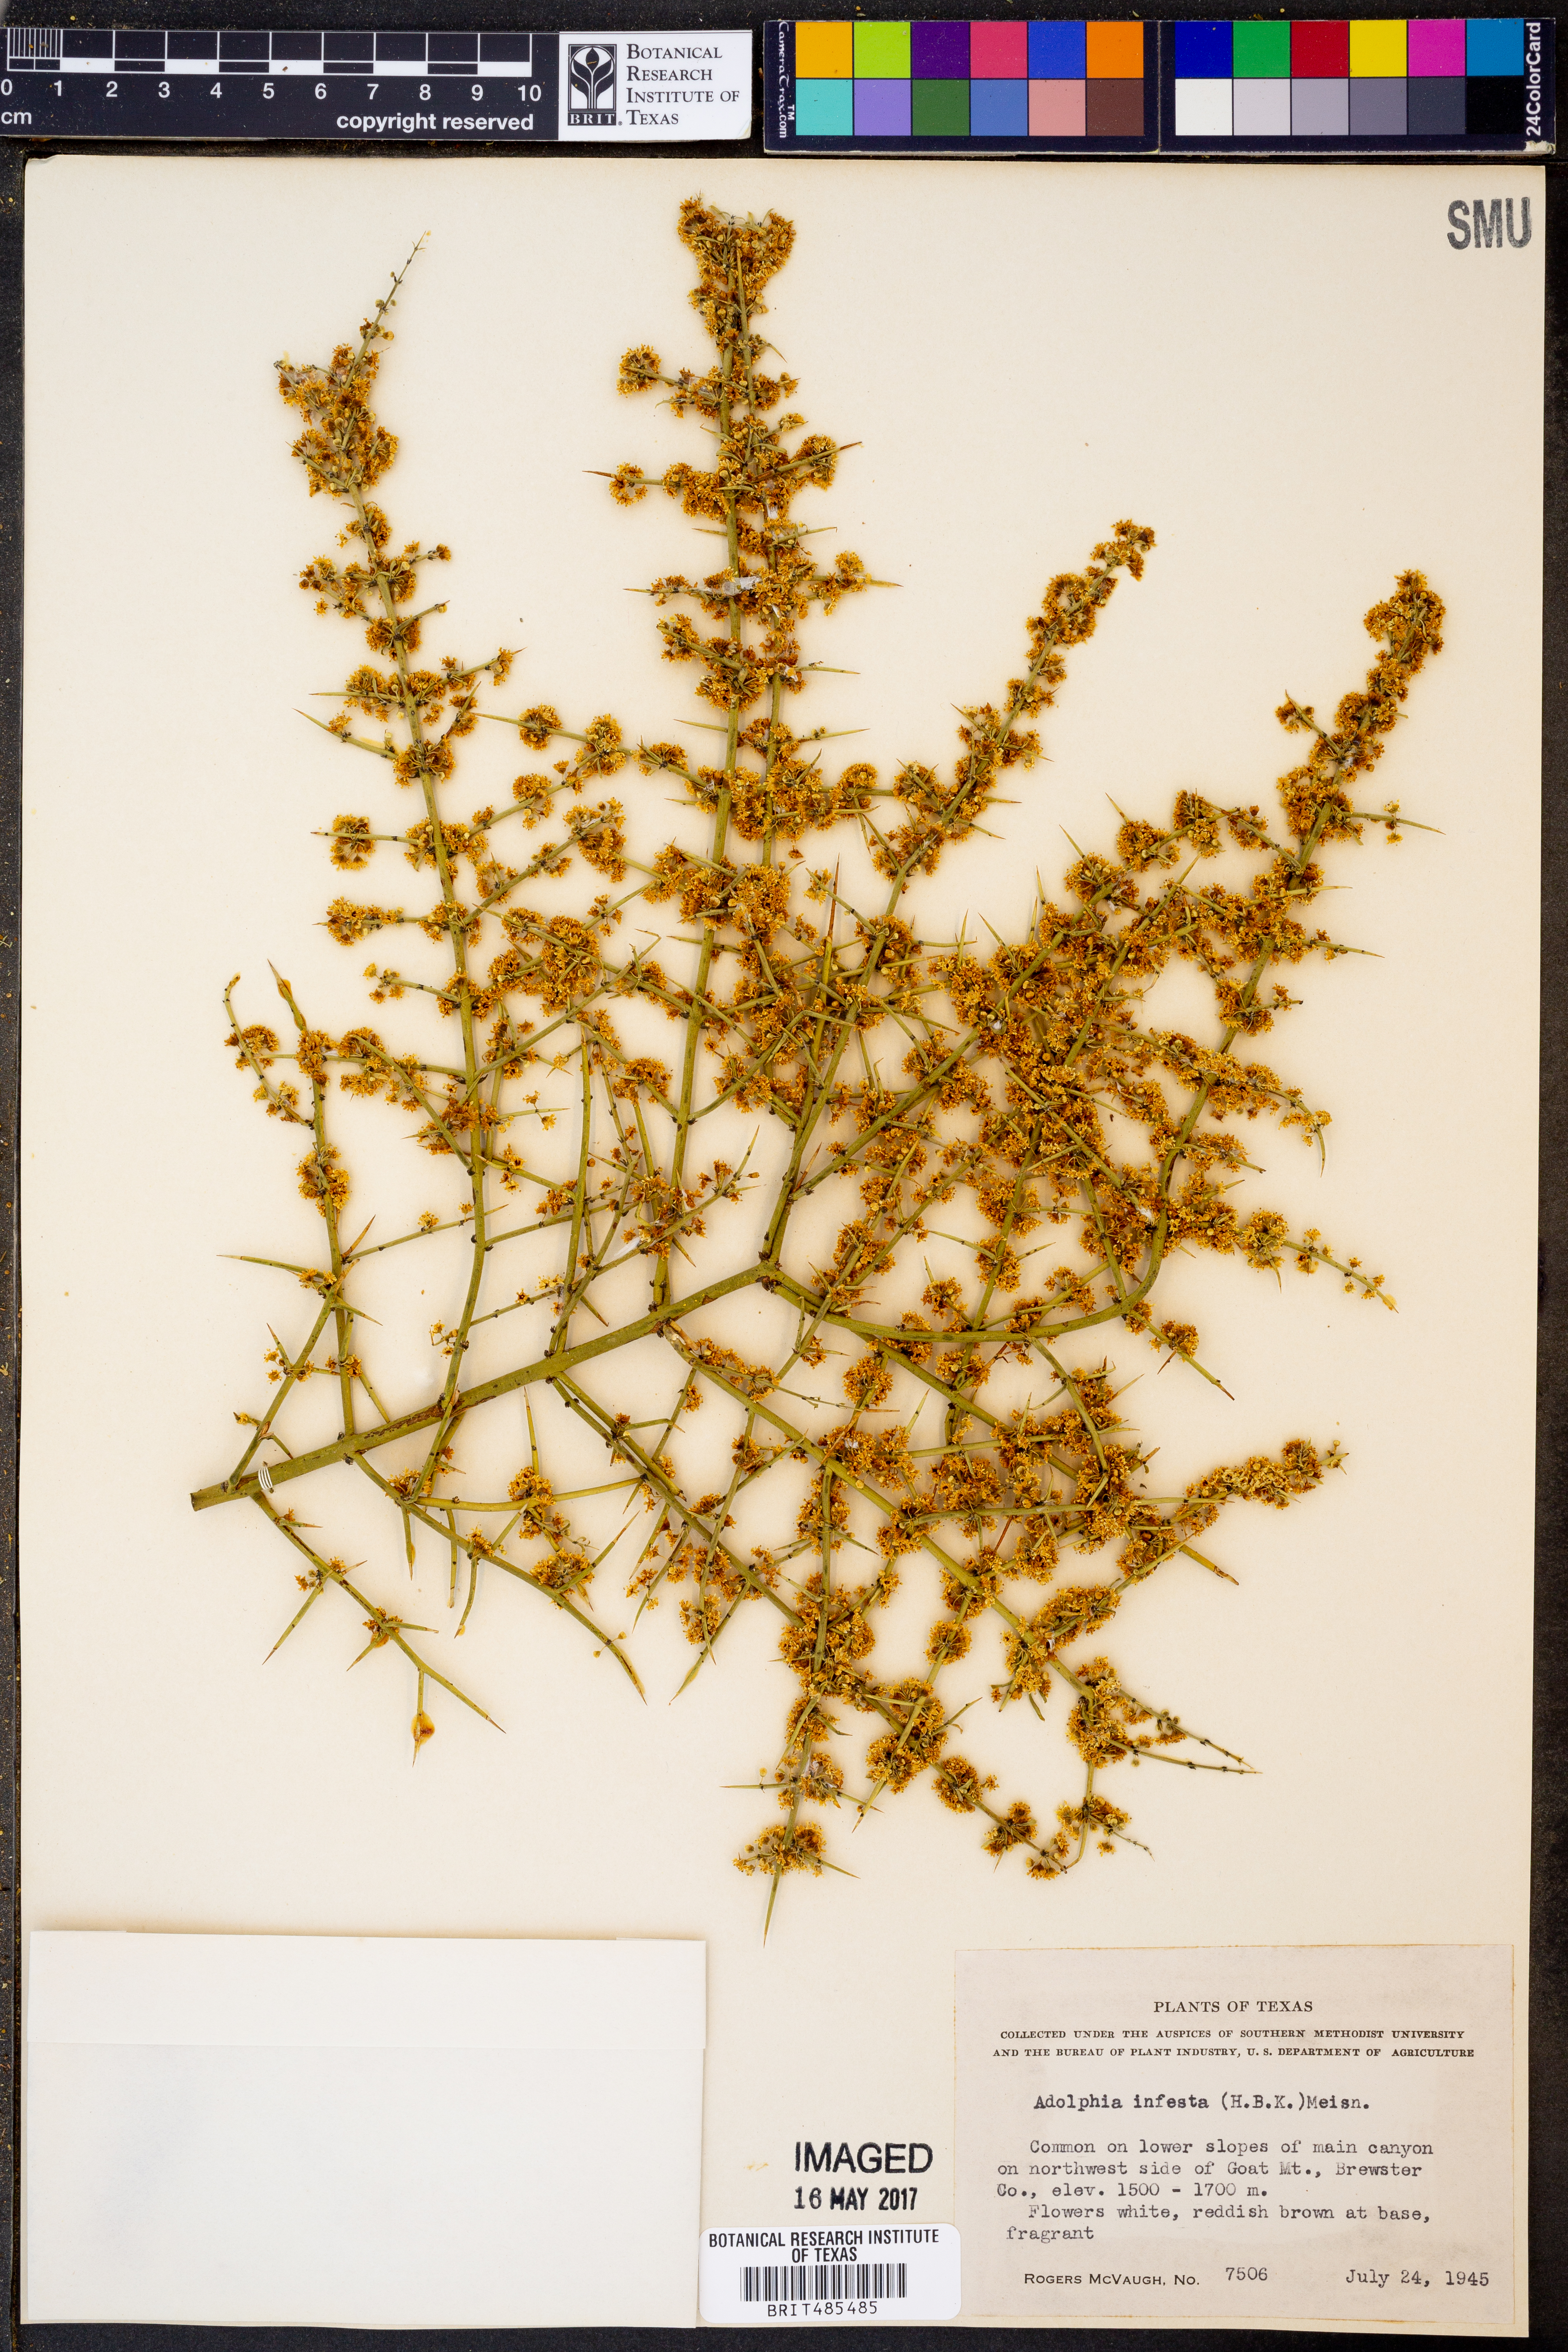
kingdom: Plantae
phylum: Tracheophyta
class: Magnoliopsida
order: Rosales
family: Rhamnaceae
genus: Adolphia
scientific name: Adolphia infesta
